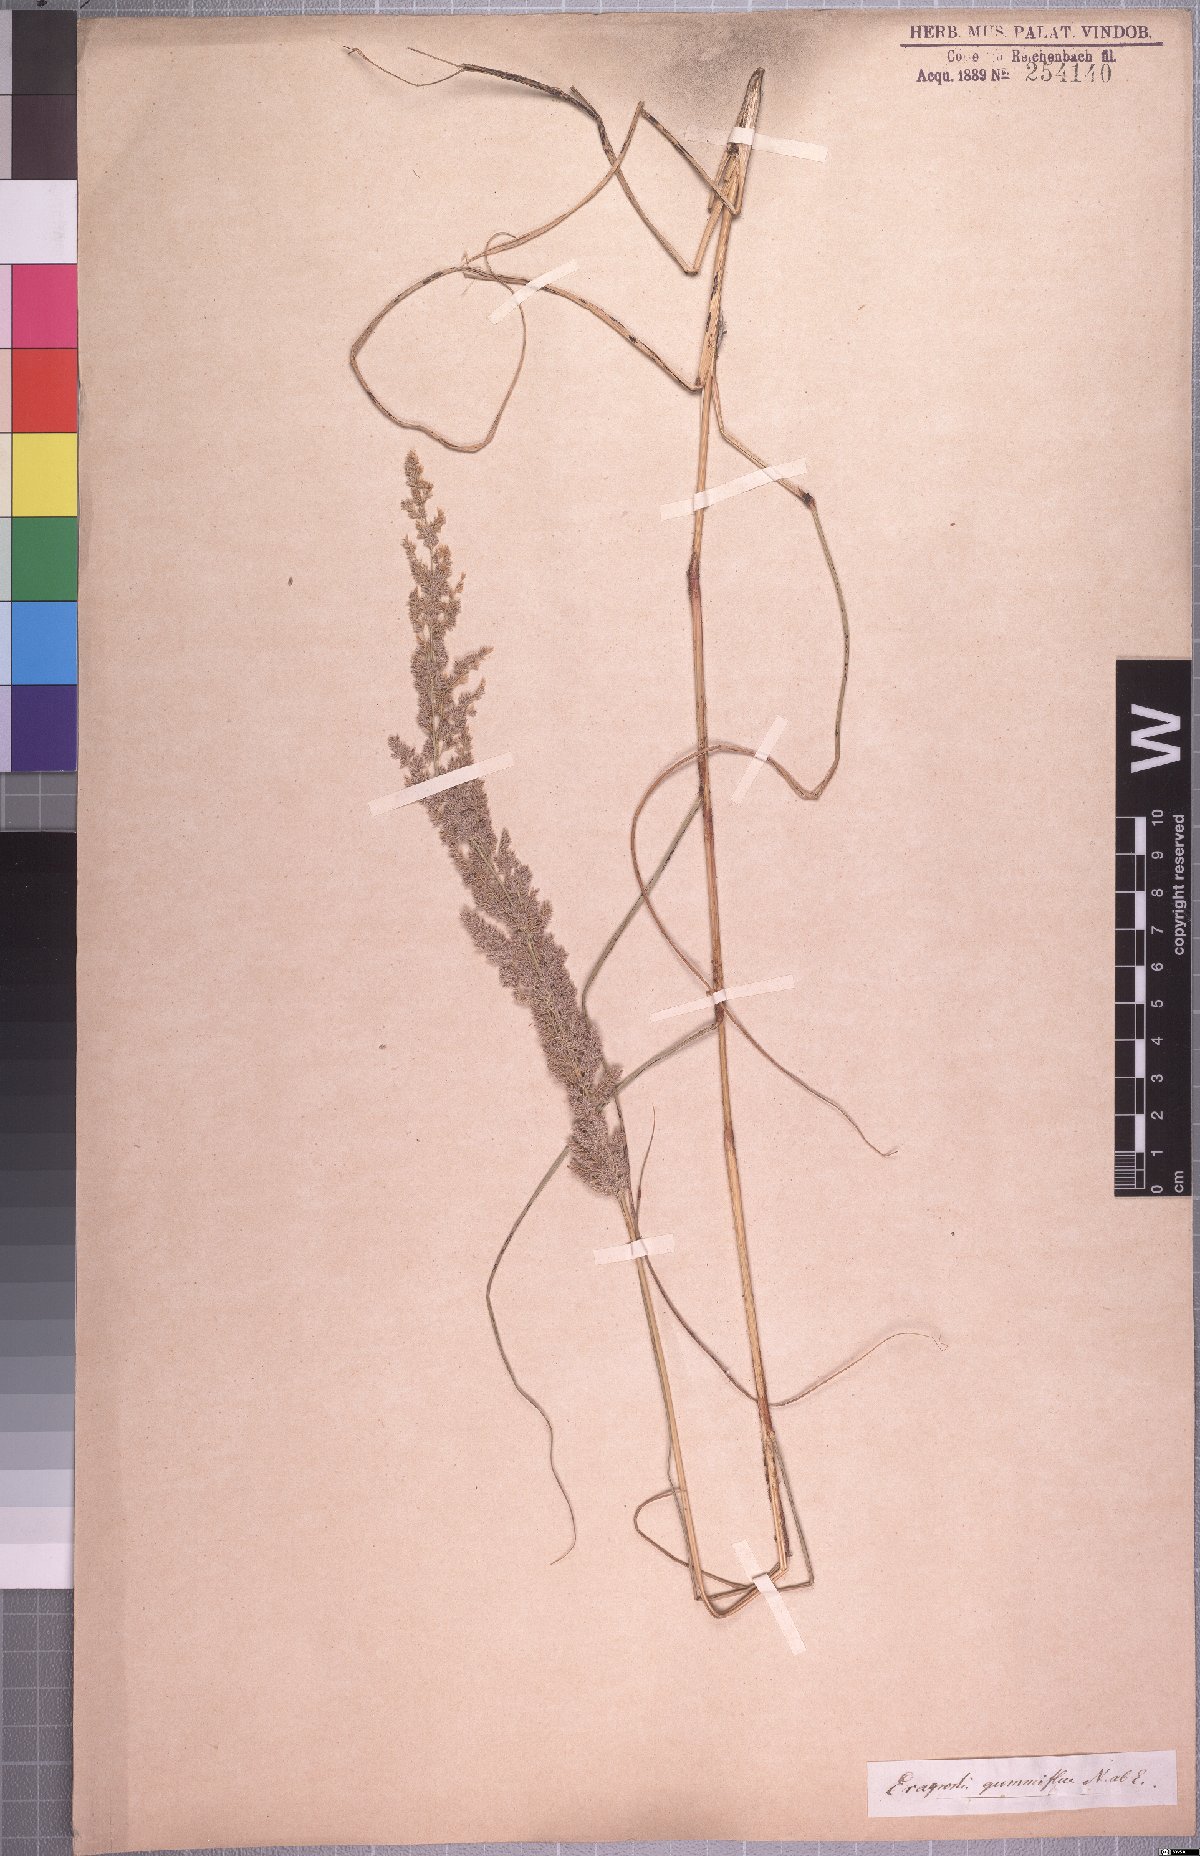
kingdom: Plantae
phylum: Tracheophyta
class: Liliopsida
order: Poales
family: Poaceae
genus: Eragrostis
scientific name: Eragrostis gummiflua
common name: Gum grass
